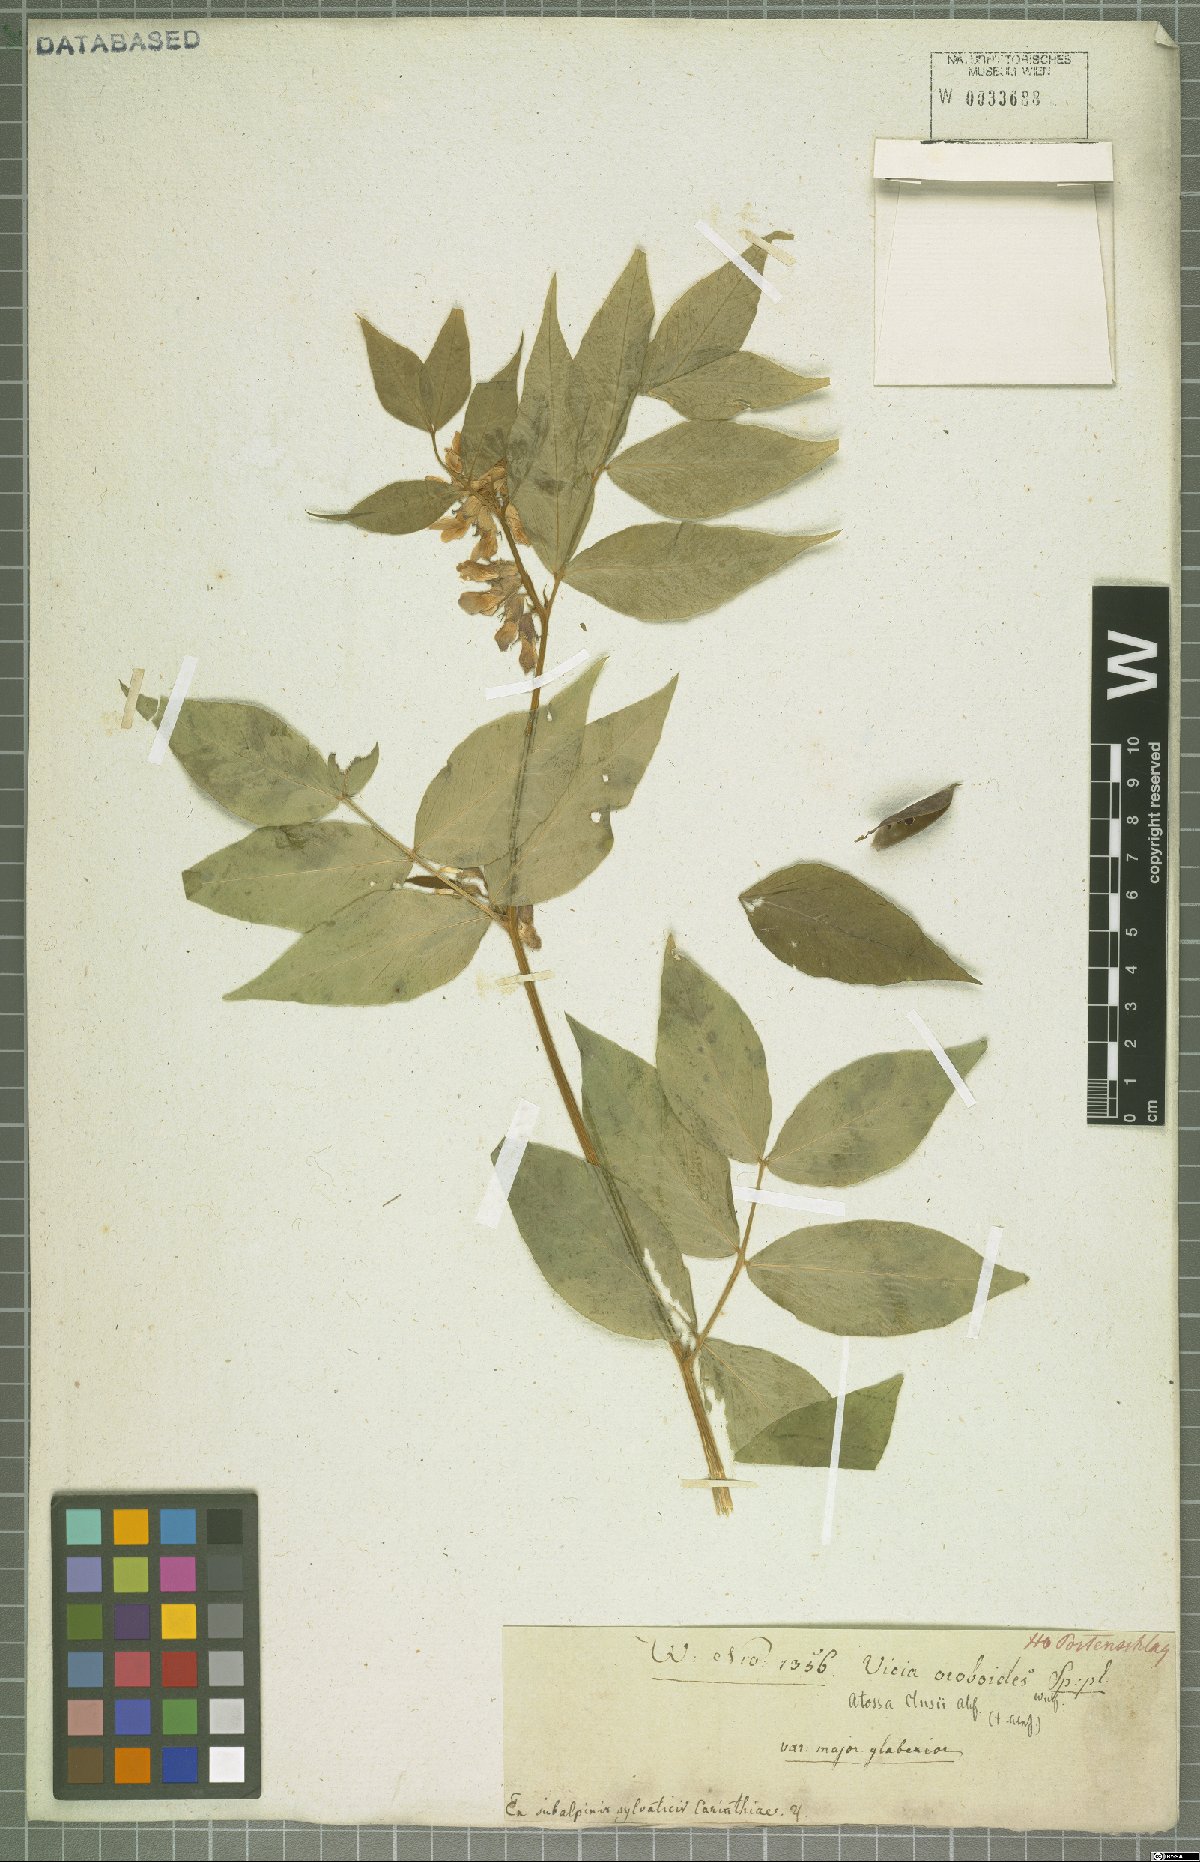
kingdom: Plantae
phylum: Tracheophyta
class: Magnoliopsida
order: Fabales
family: Fabaceae
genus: Vicia
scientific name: Vicia oroboides
